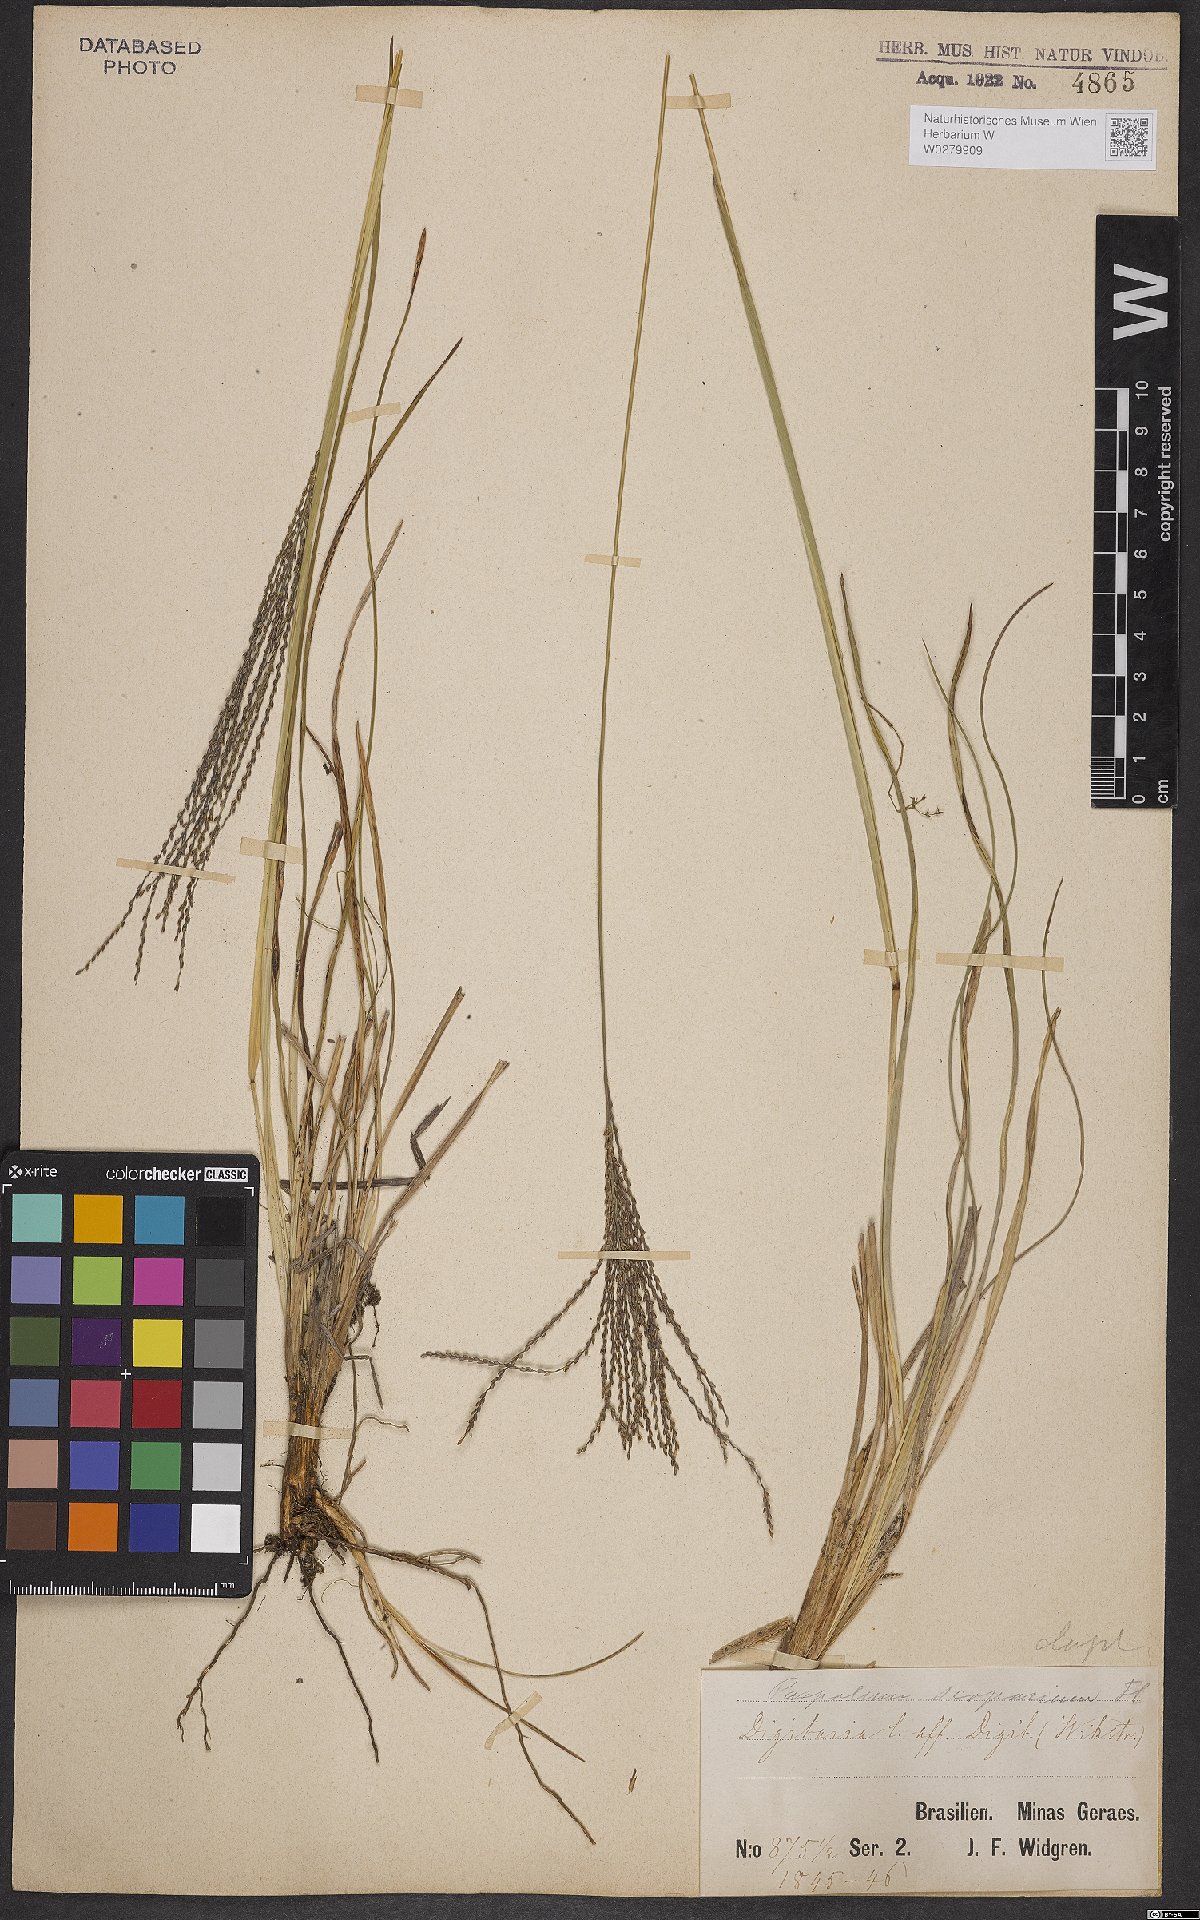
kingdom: Plantae
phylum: Tracheophyta
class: Liliopsida
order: Poales
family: Poaceae
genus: Axonopus
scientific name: Axonopus scoparius
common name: Imperial grass
